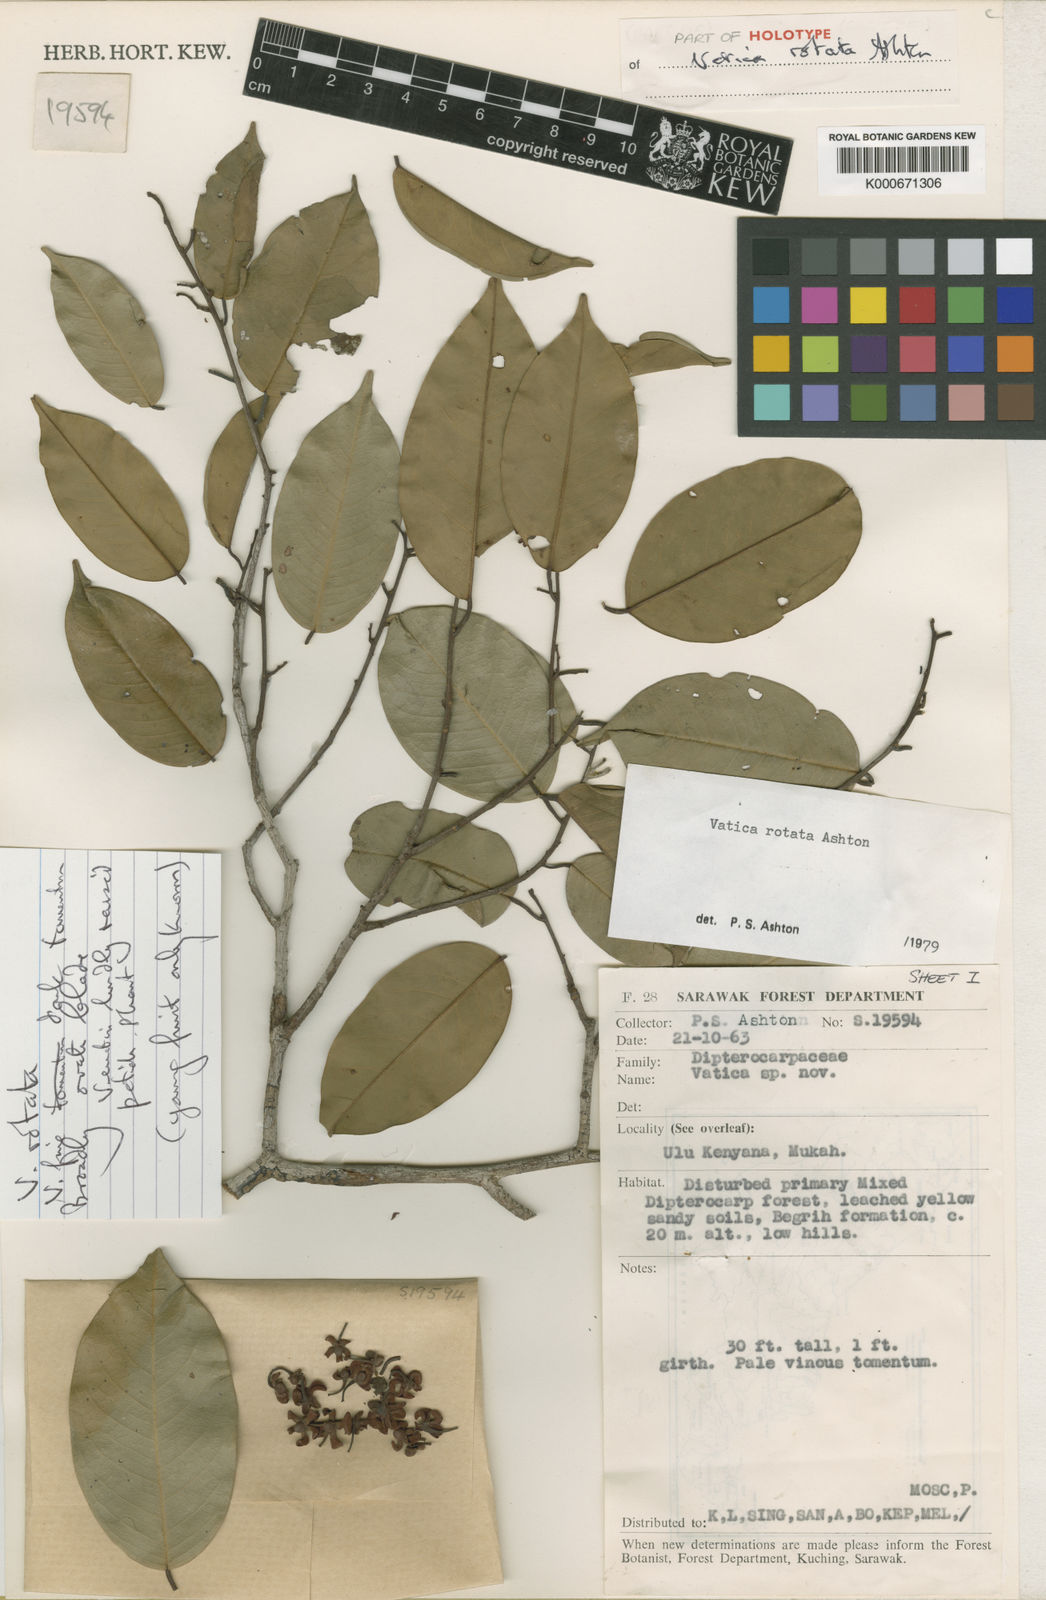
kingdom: Plantae
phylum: Tracheophyta
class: Magnoliopsida
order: Malvales
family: Dipterocarpaceae
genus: Vatica
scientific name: Vatica rotata
